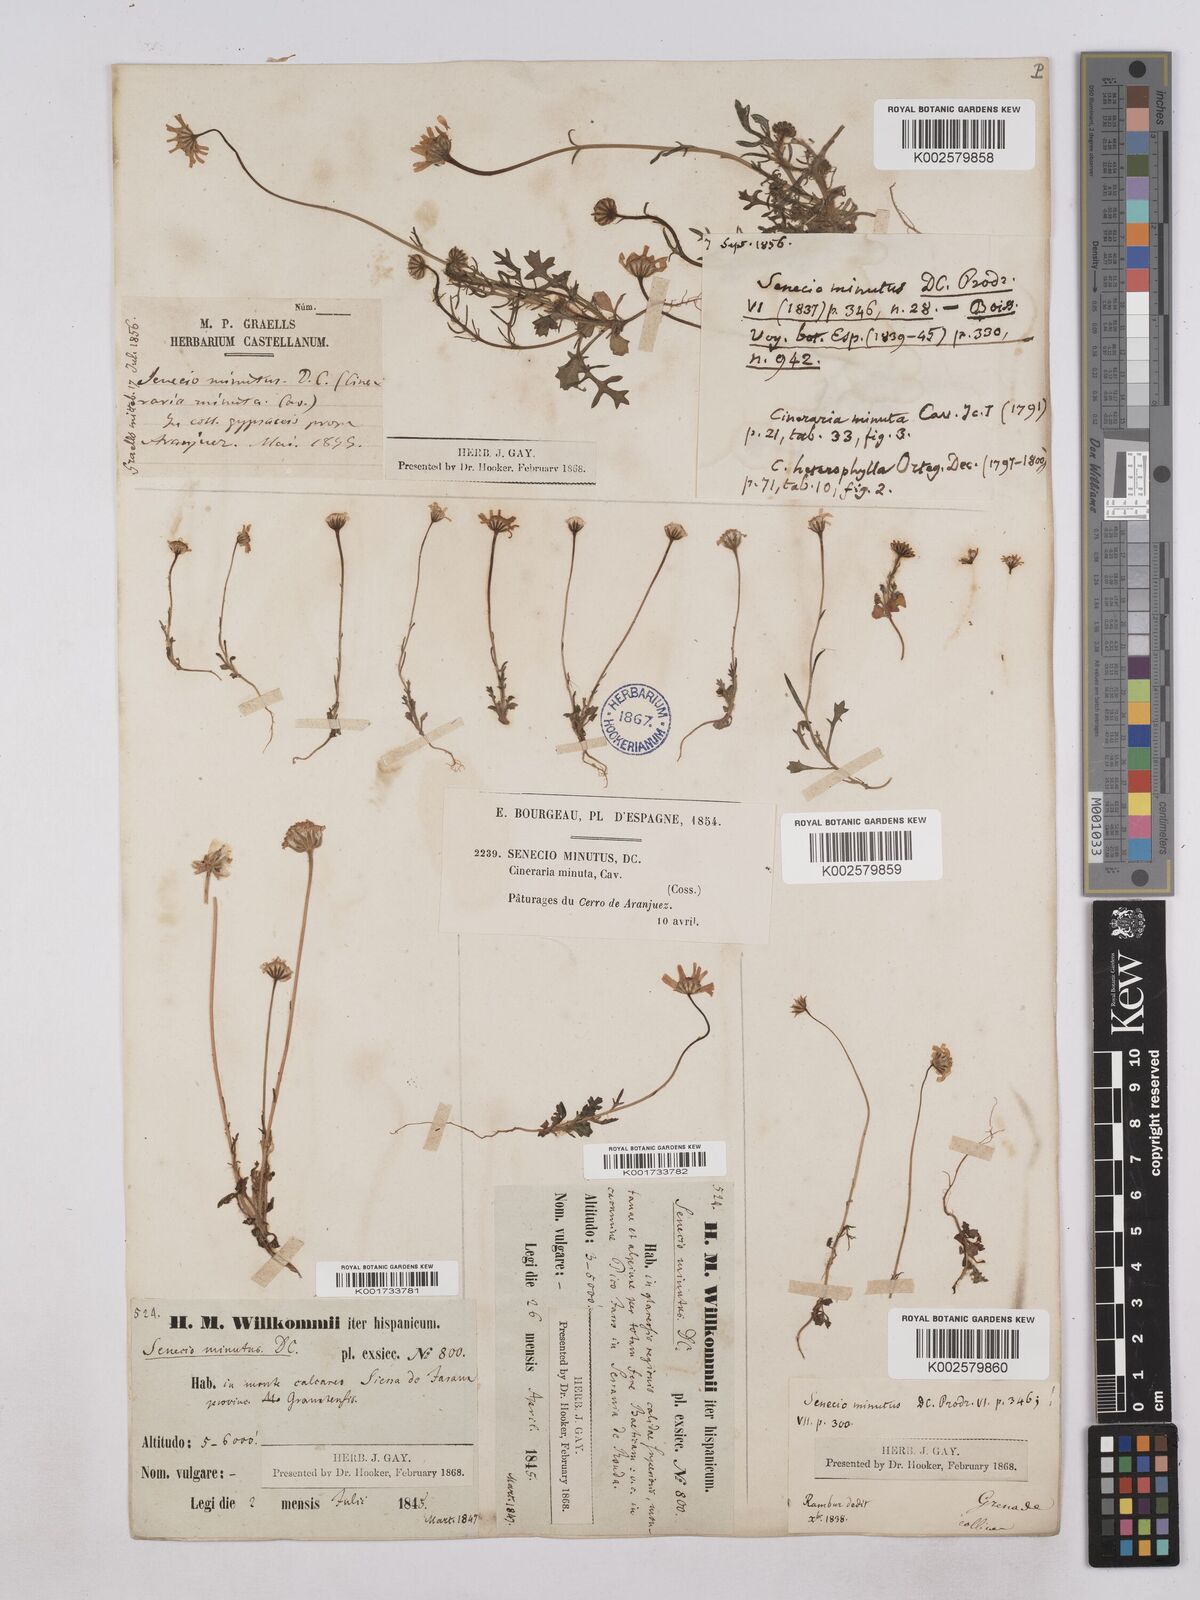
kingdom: Plantae
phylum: Tracheophyta
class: Magnoliopsida
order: Asterales
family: Asteraceae
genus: Jacobaea
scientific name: Jacobaea minuta
